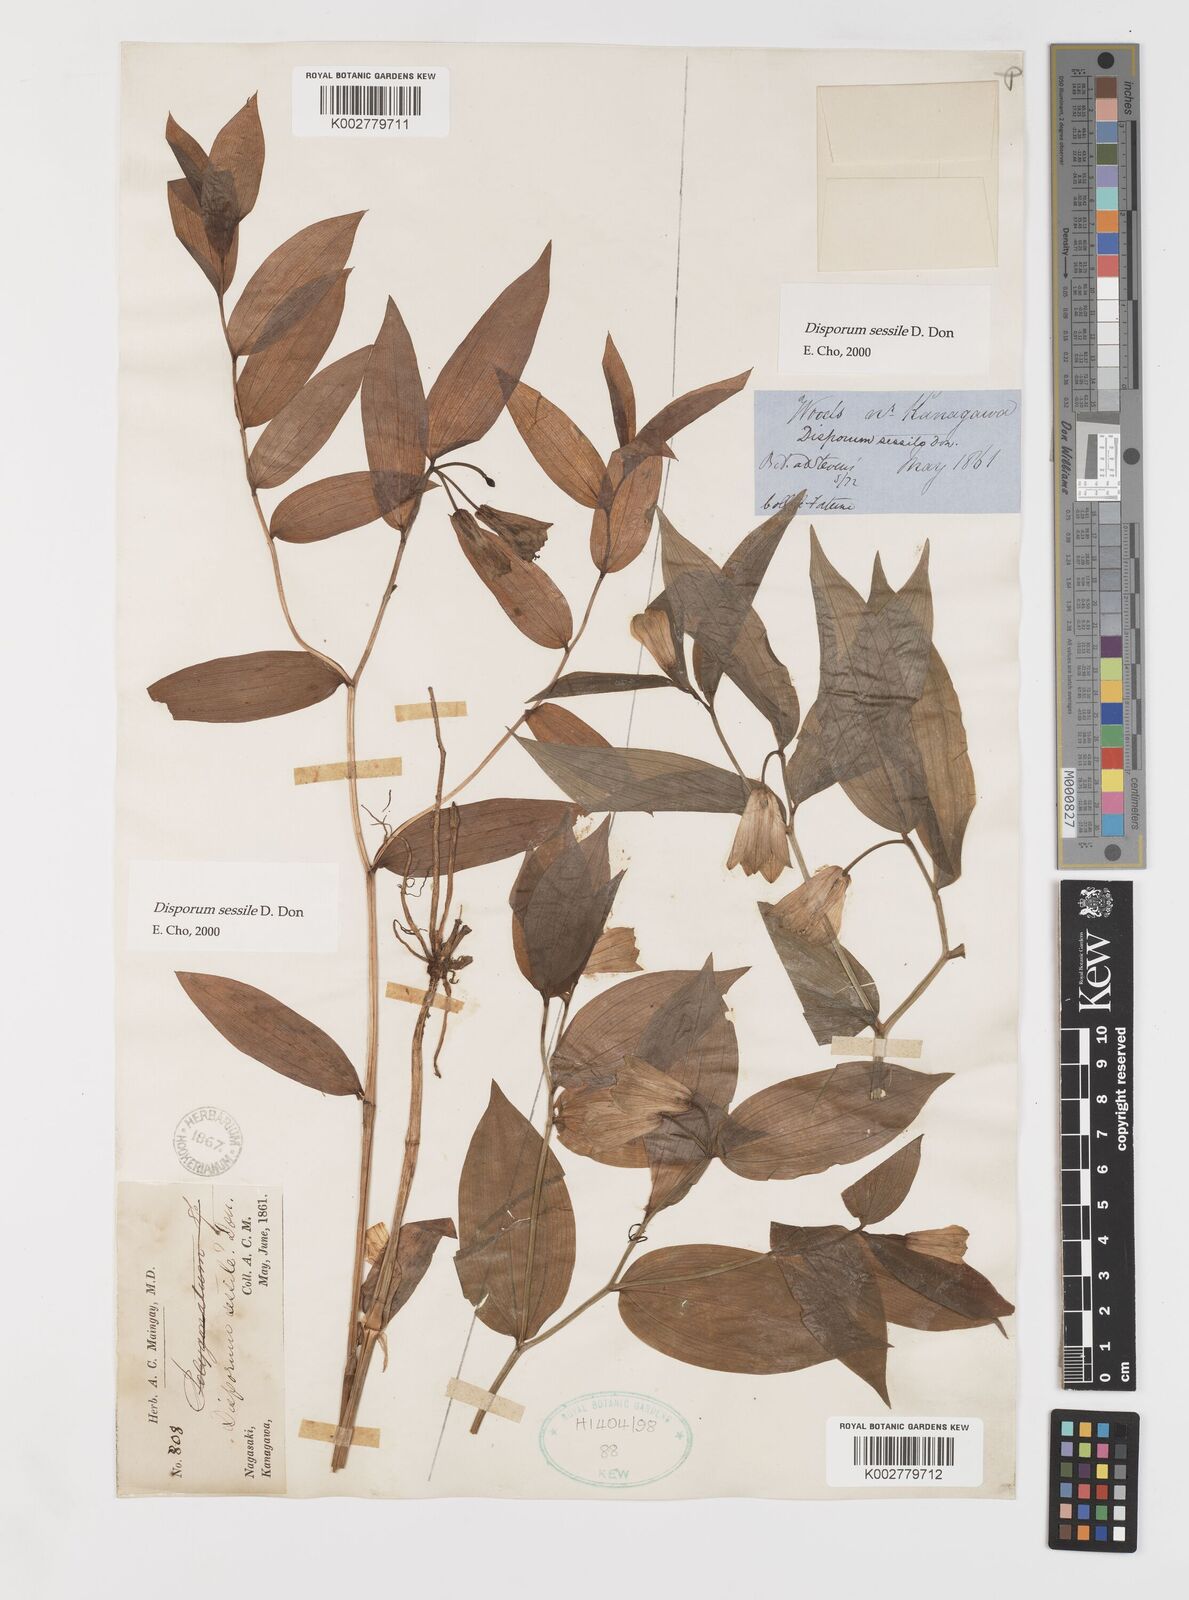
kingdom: Plantae
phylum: Tracheophyta
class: Liliopsida
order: Liliales
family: Colchicaceae
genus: Disporum
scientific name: Disporum sessile
